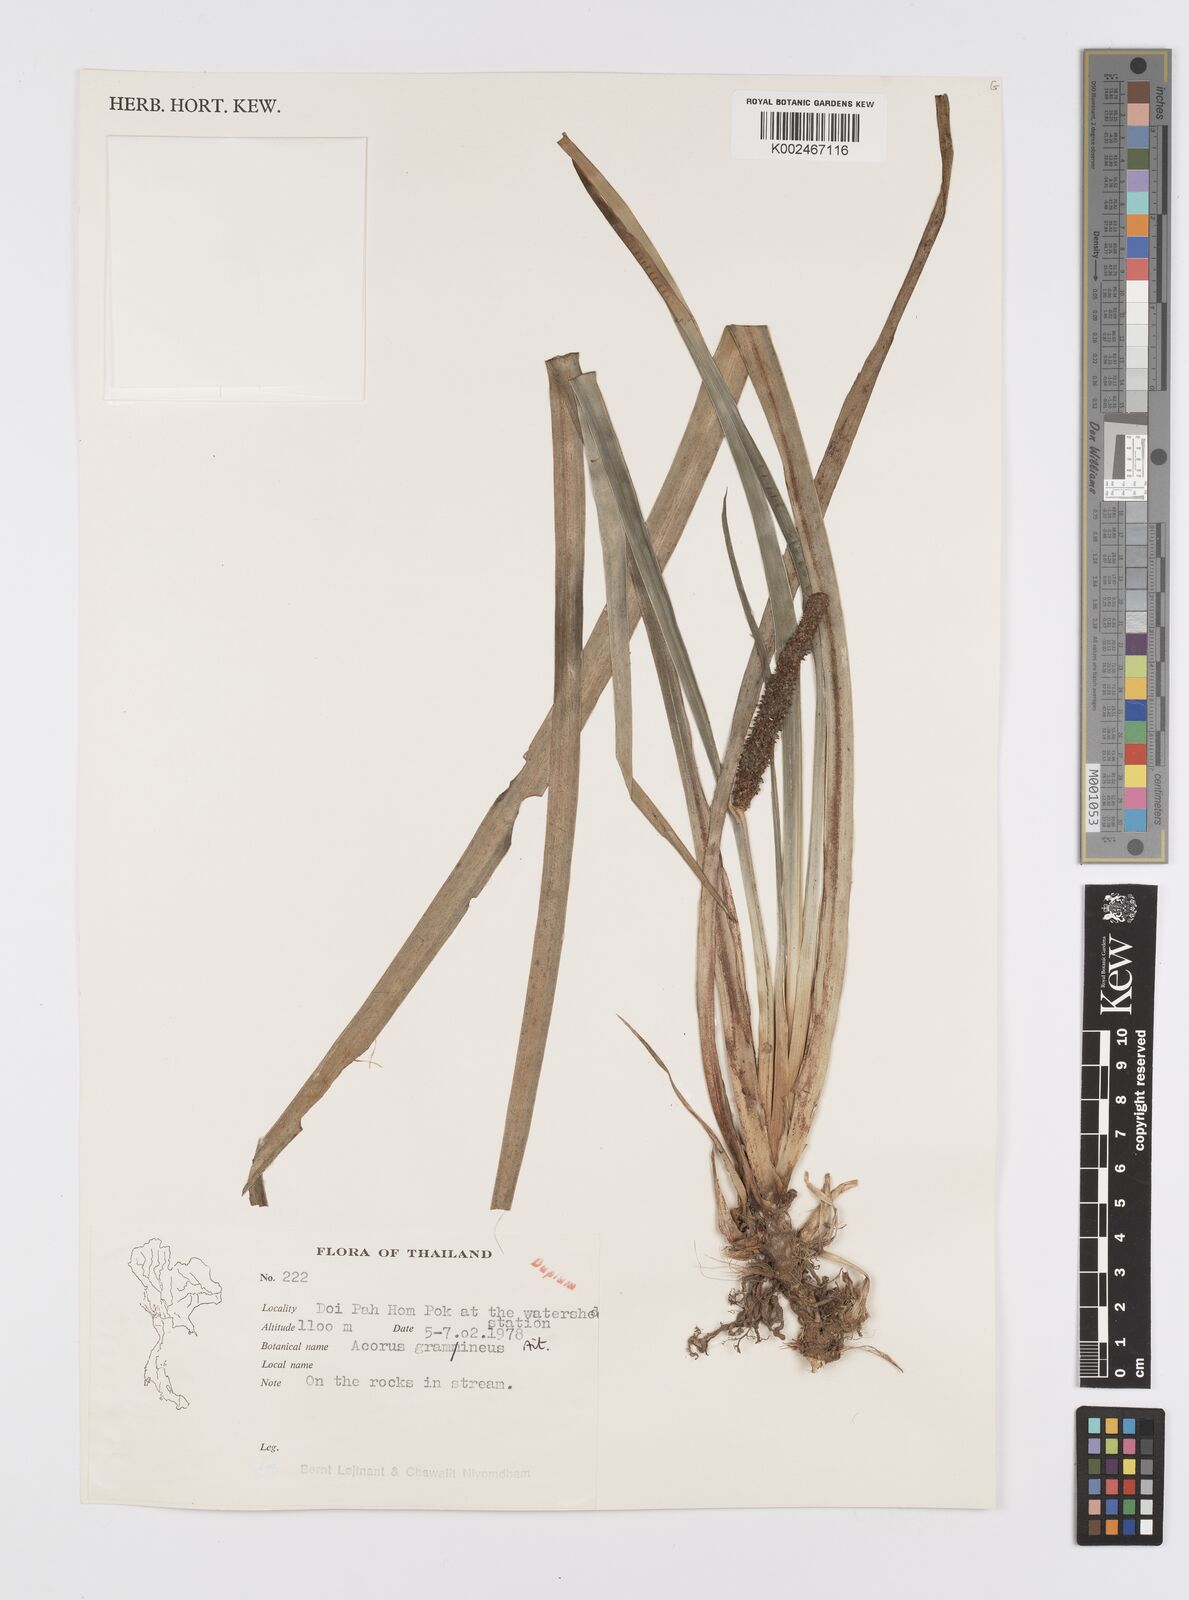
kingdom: Plantae
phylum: Tracheophyta
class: Liliopsida
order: Acorales
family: Acoraceae
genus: Acorus
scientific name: Acorus gramineus
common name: Slender sweet-flag
